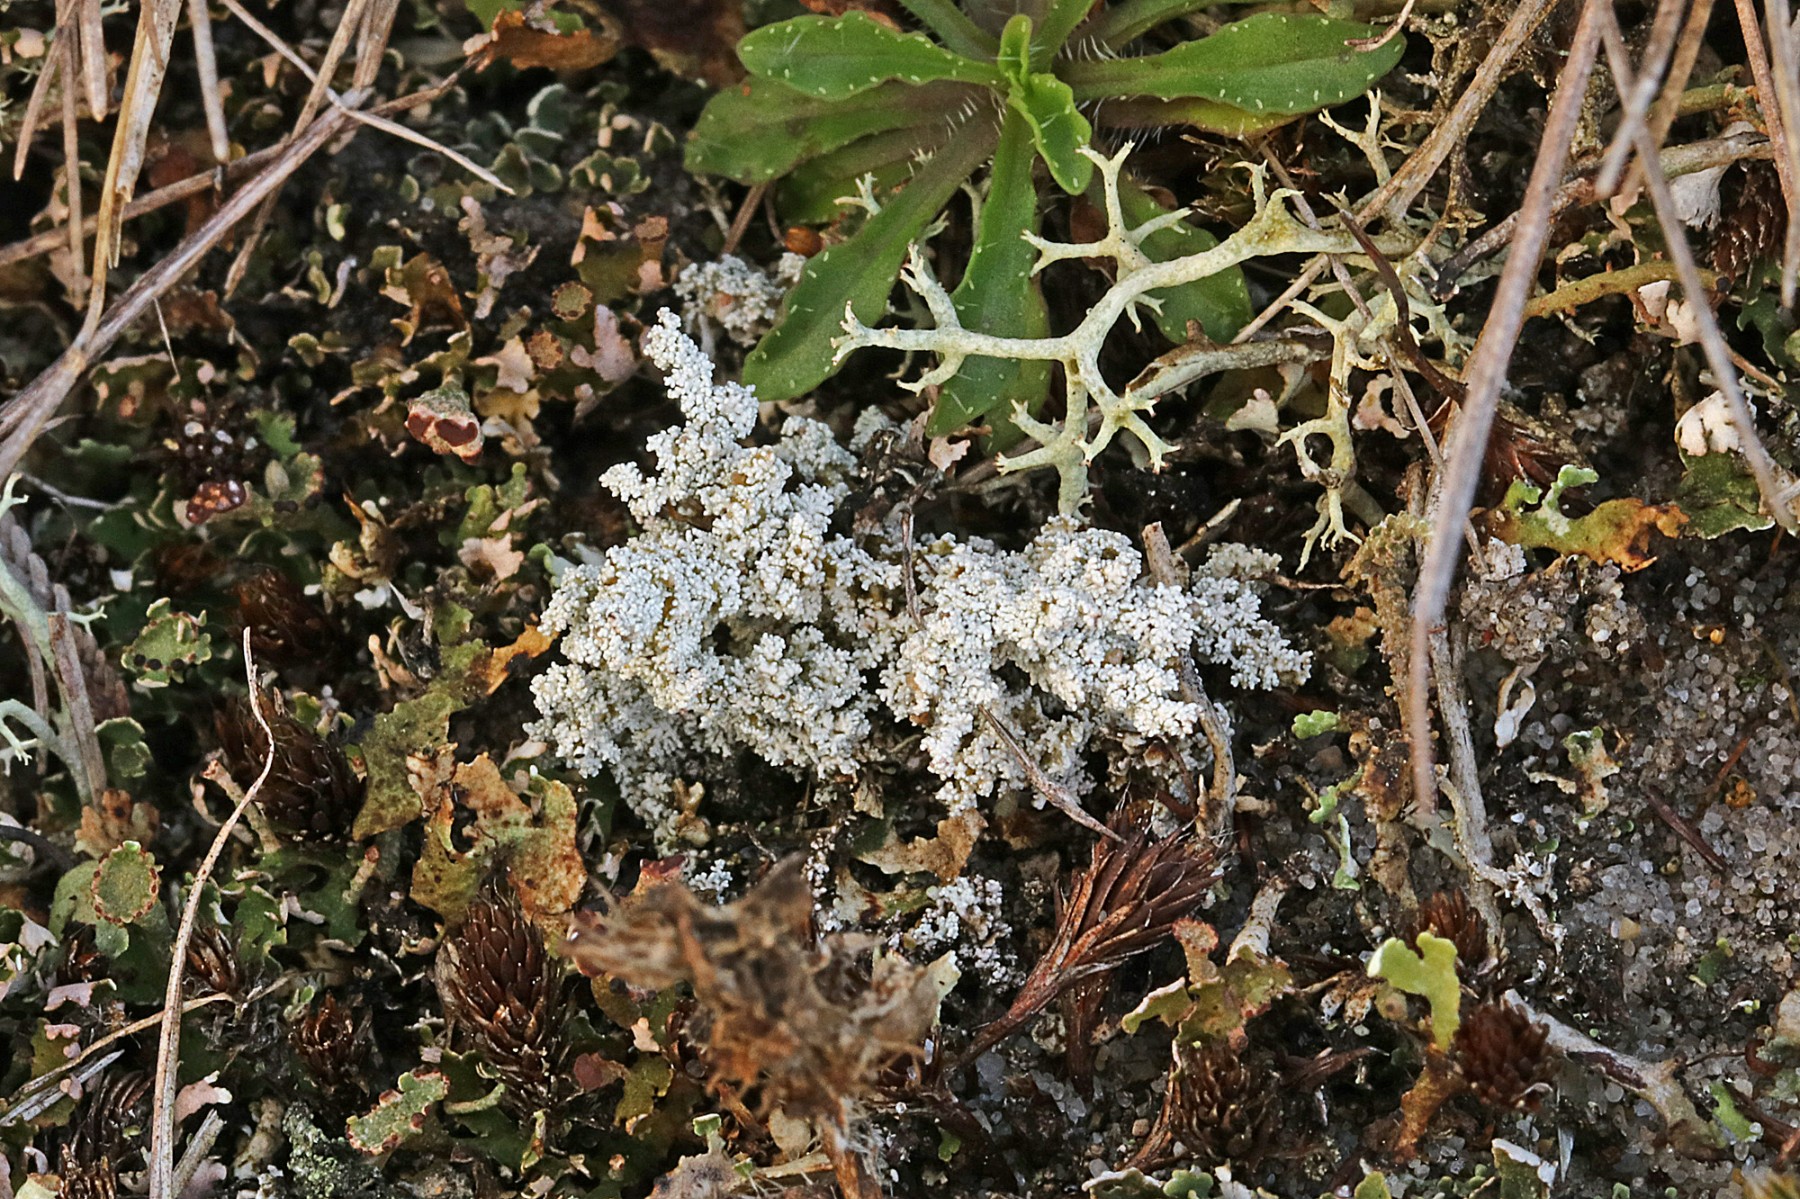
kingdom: Fungi
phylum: Ascomycota
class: Lecanoromycetes
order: Lecanorales
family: Stereocaulaceae
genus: Stereocaulon
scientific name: Stereocaulon saxatile
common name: klit-korallav
